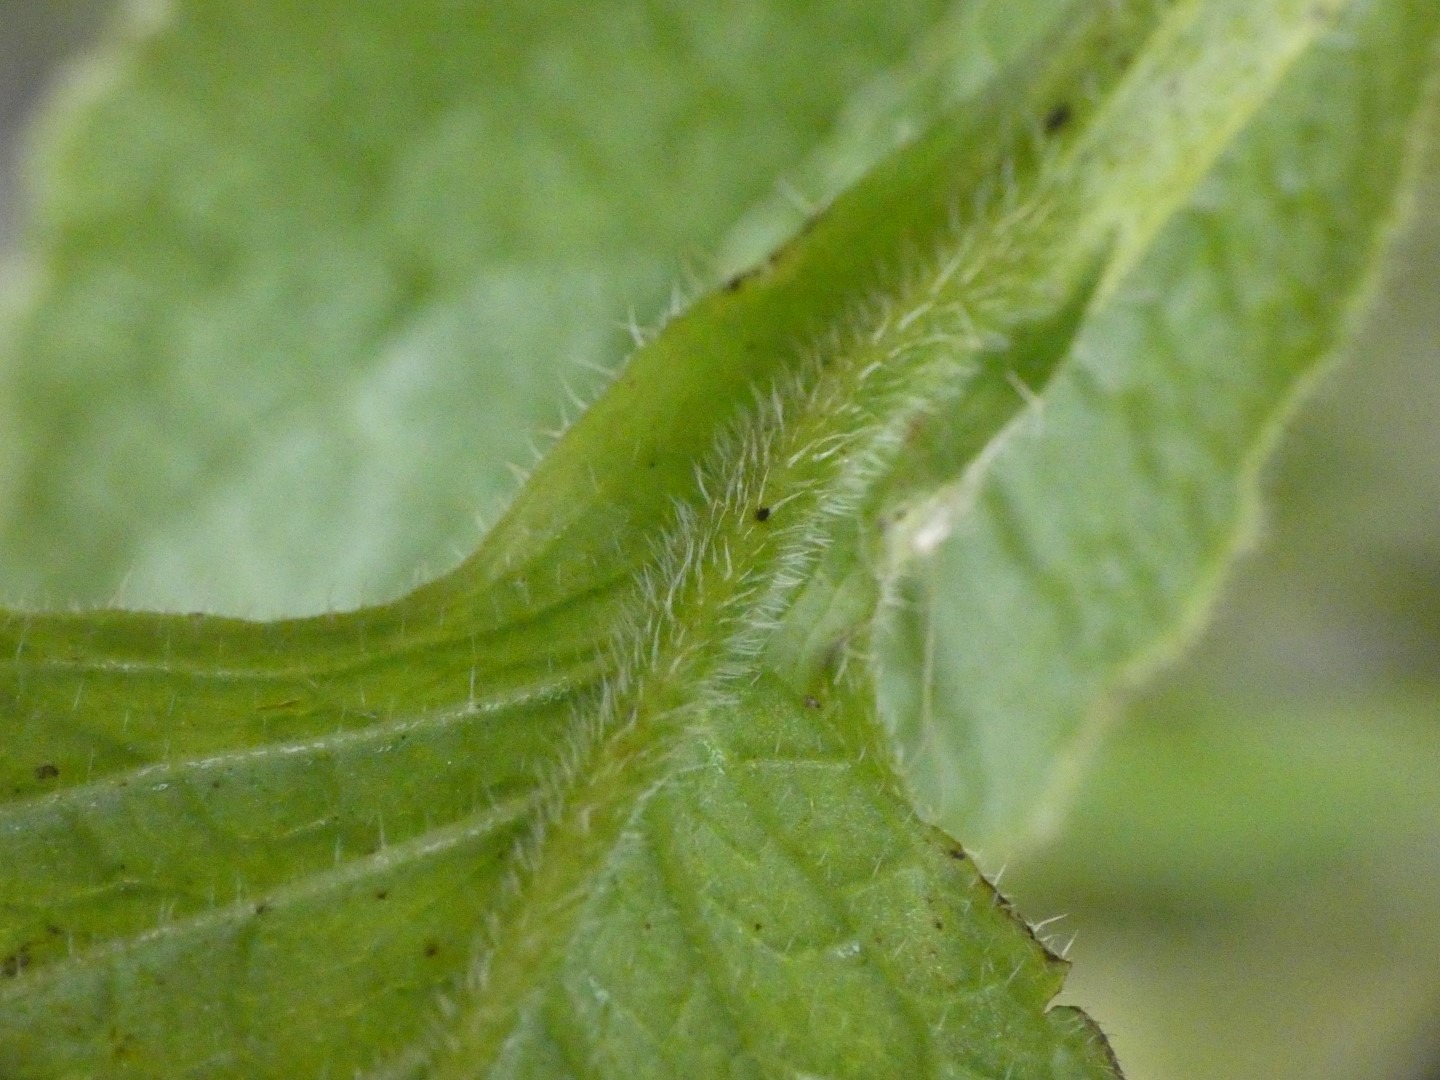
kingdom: Plantae
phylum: Tracheophyta
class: Magnoliopsida
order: Boraginales
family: Boraginaceae
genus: Symphytum
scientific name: Symphytum uplandicum
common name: Foder-kulsukker
